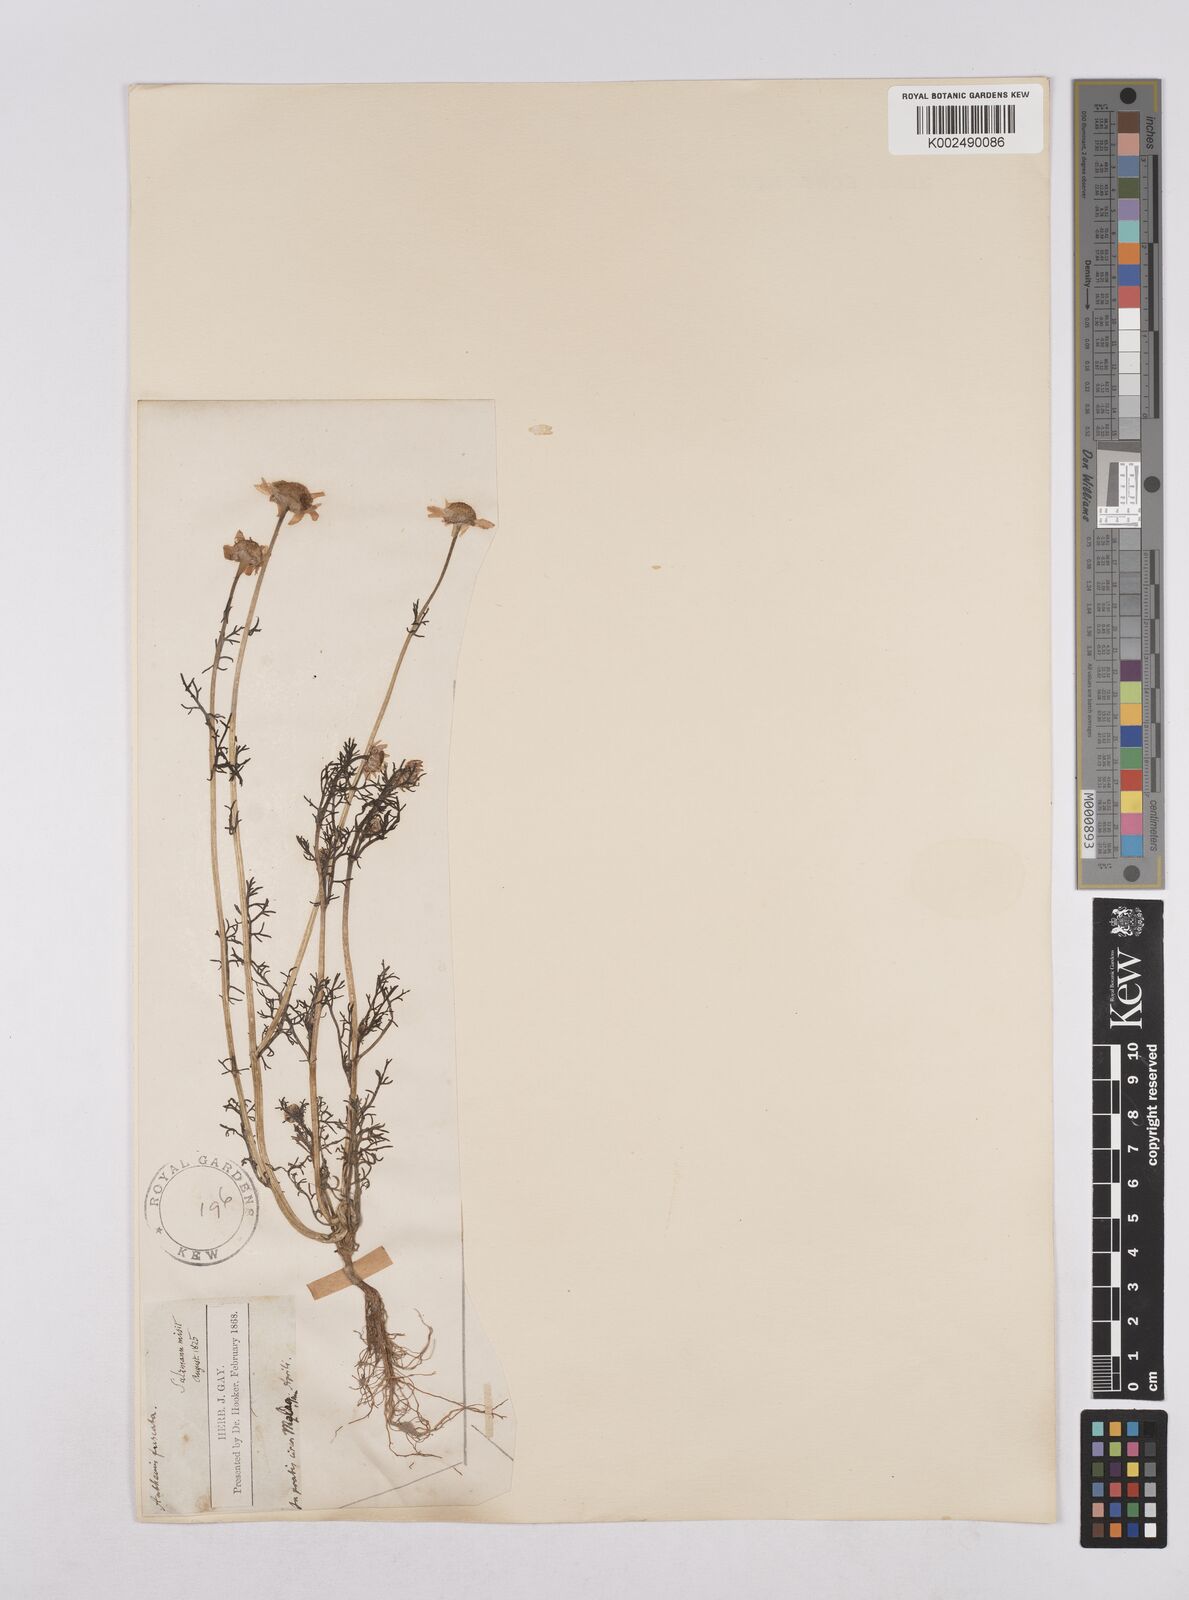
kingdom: Plantae
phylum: Tracheophyta
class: Magnoliopsida
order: Asterales
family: Asteraceae
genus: Chamaemelum
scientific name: Chamaemelum fuscatum
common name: Chamomile
